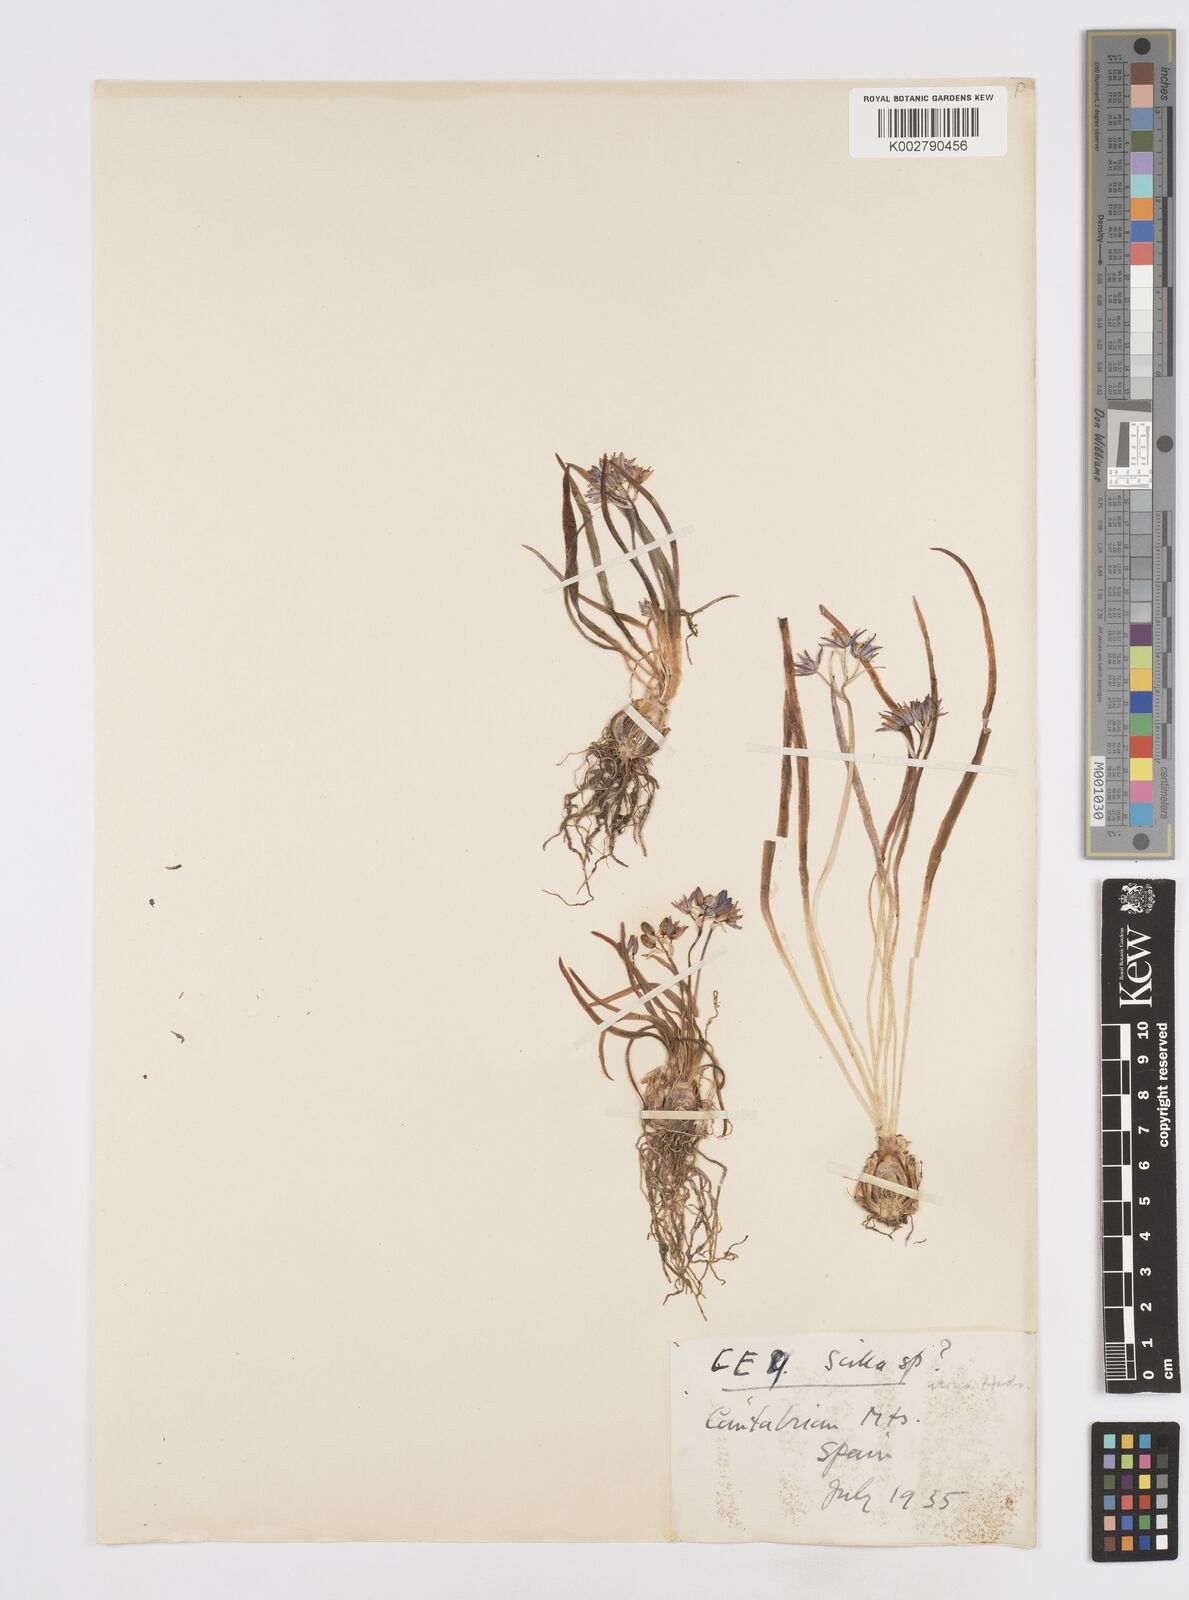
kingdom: Plantae
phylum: Tracheophyta
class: Liliopsida
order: Asparagales
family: Asparagaceae
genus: Scilla
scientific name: Scilla verna
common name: Spring squill
